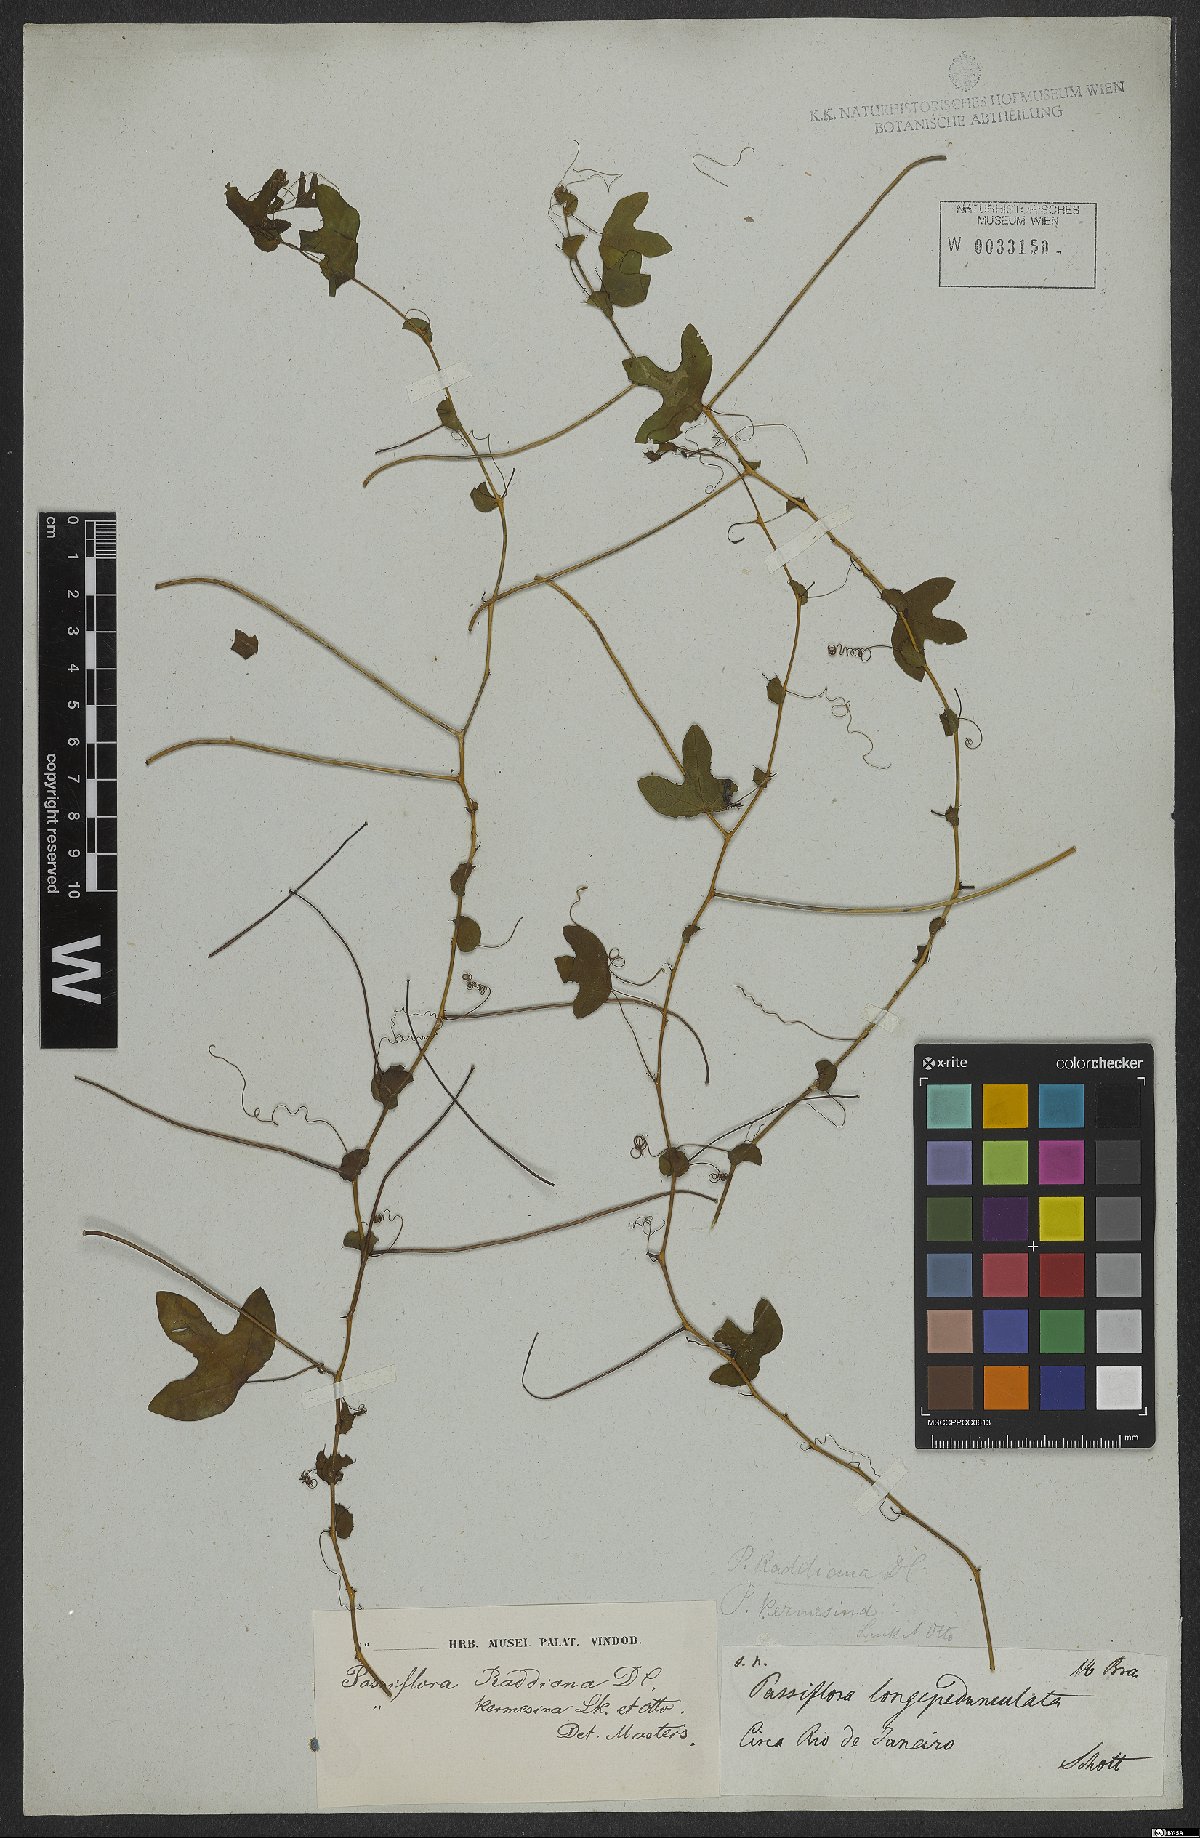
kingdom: Plantae
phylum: Tracheophyta
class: Magnoliopsida
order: Malpighiales
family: Passifloraceae
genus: Passiflora
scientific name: Passiflora kermesina
